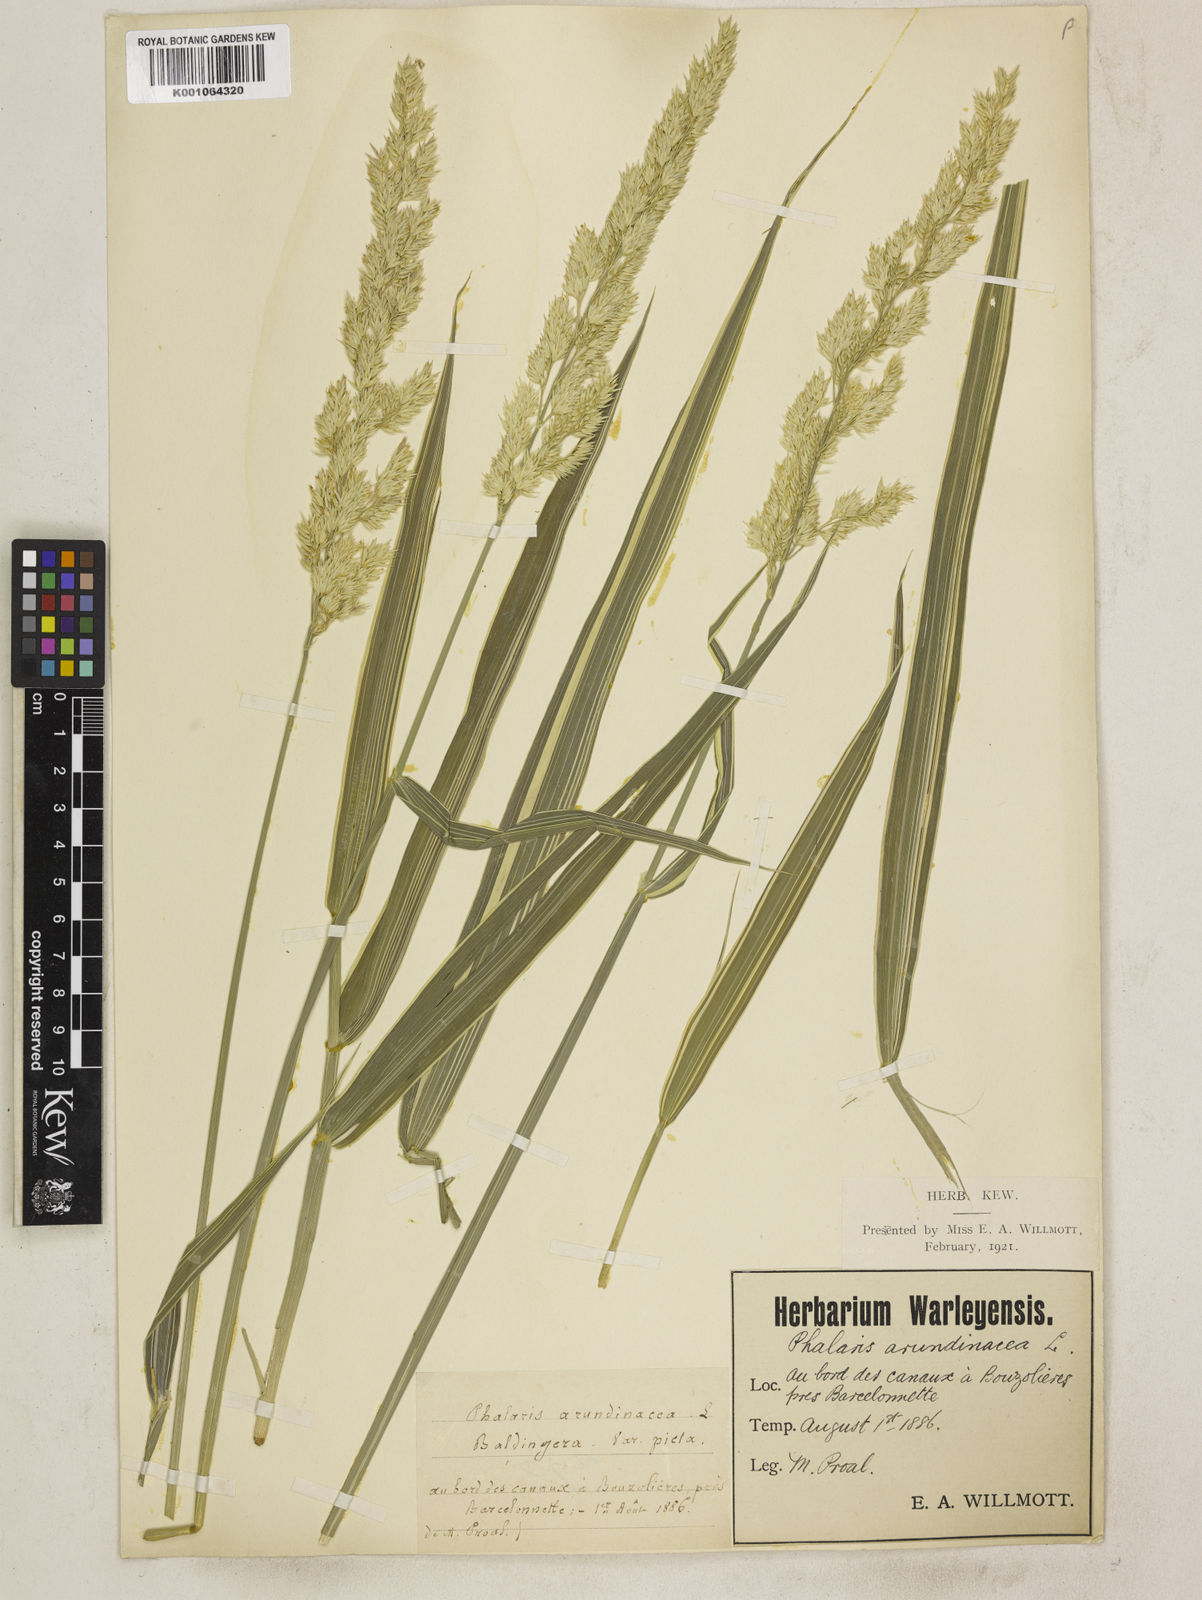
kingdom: Plantae
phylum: Tracheophyta
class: Liliopsida
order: Poales
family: Poaceae
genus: Phalaris
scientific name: Phalaris arundinacea
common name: Reed canary-grass
